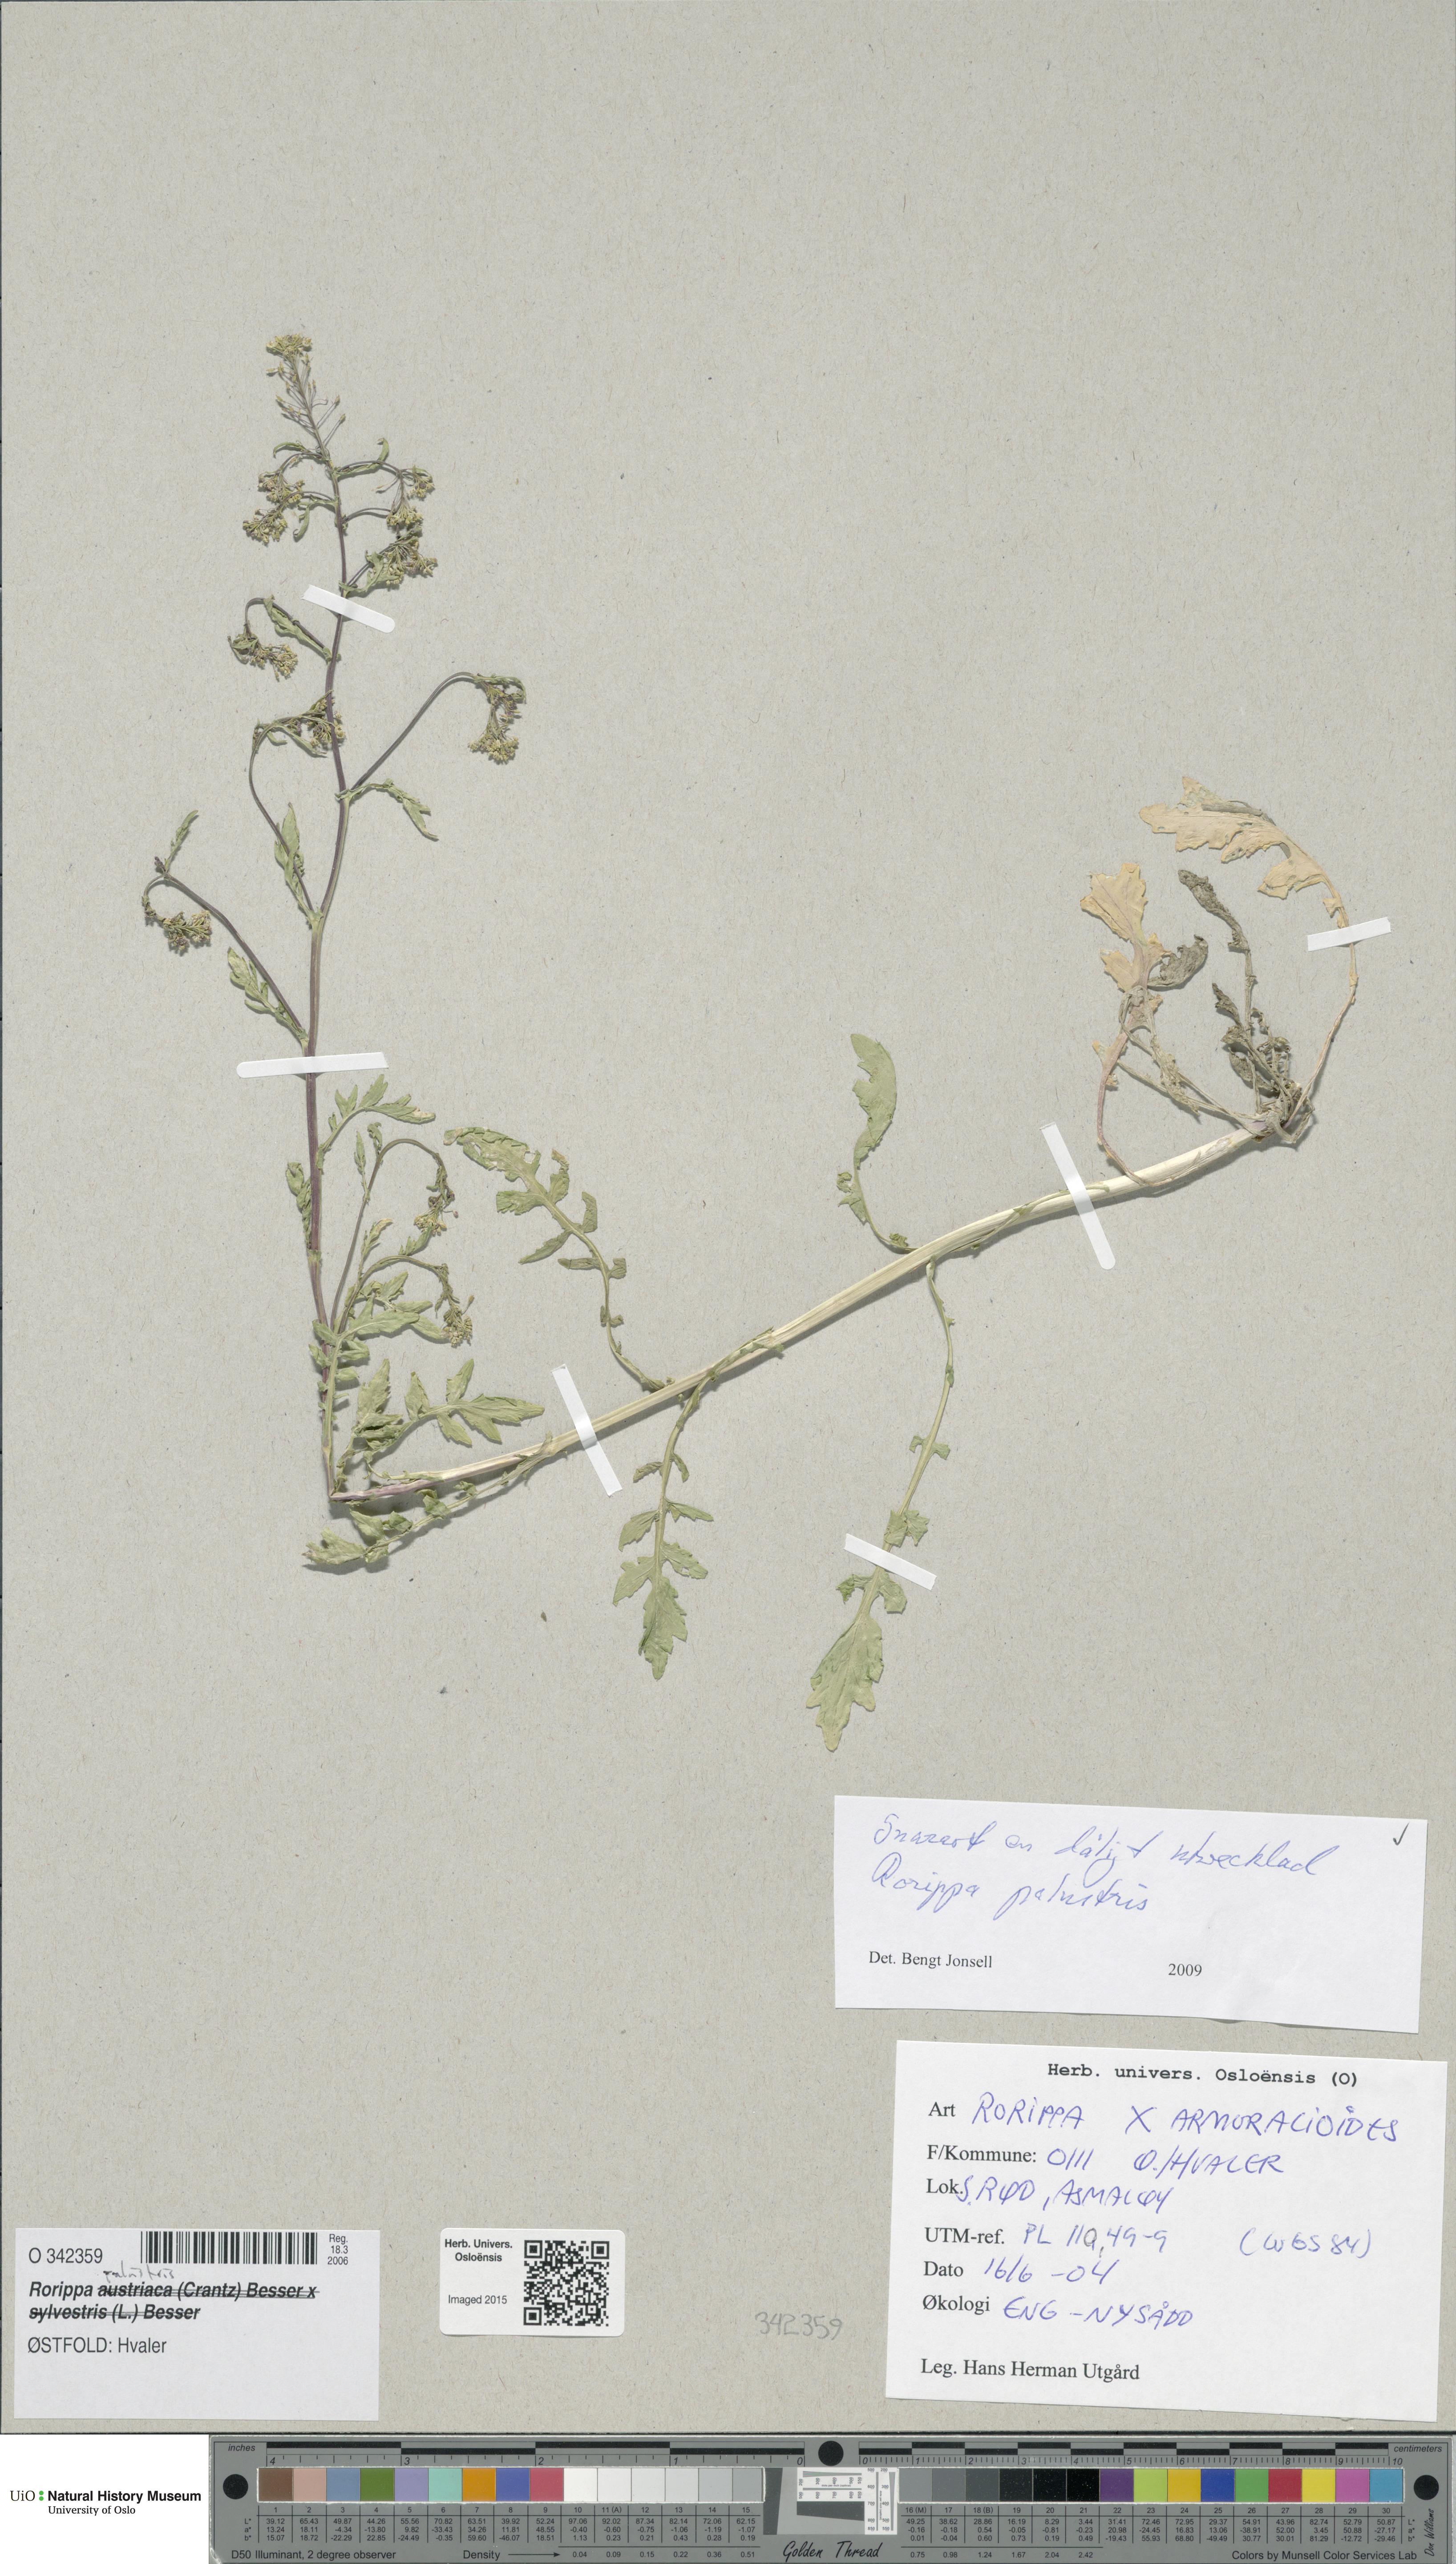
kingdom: Plantae
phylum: Tracheophyta
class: Magnoliopsida
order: Brassicales
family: Brassicaceae
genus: Rorippa
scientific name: Rorippa palustris
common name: Marsh yellow-cress
